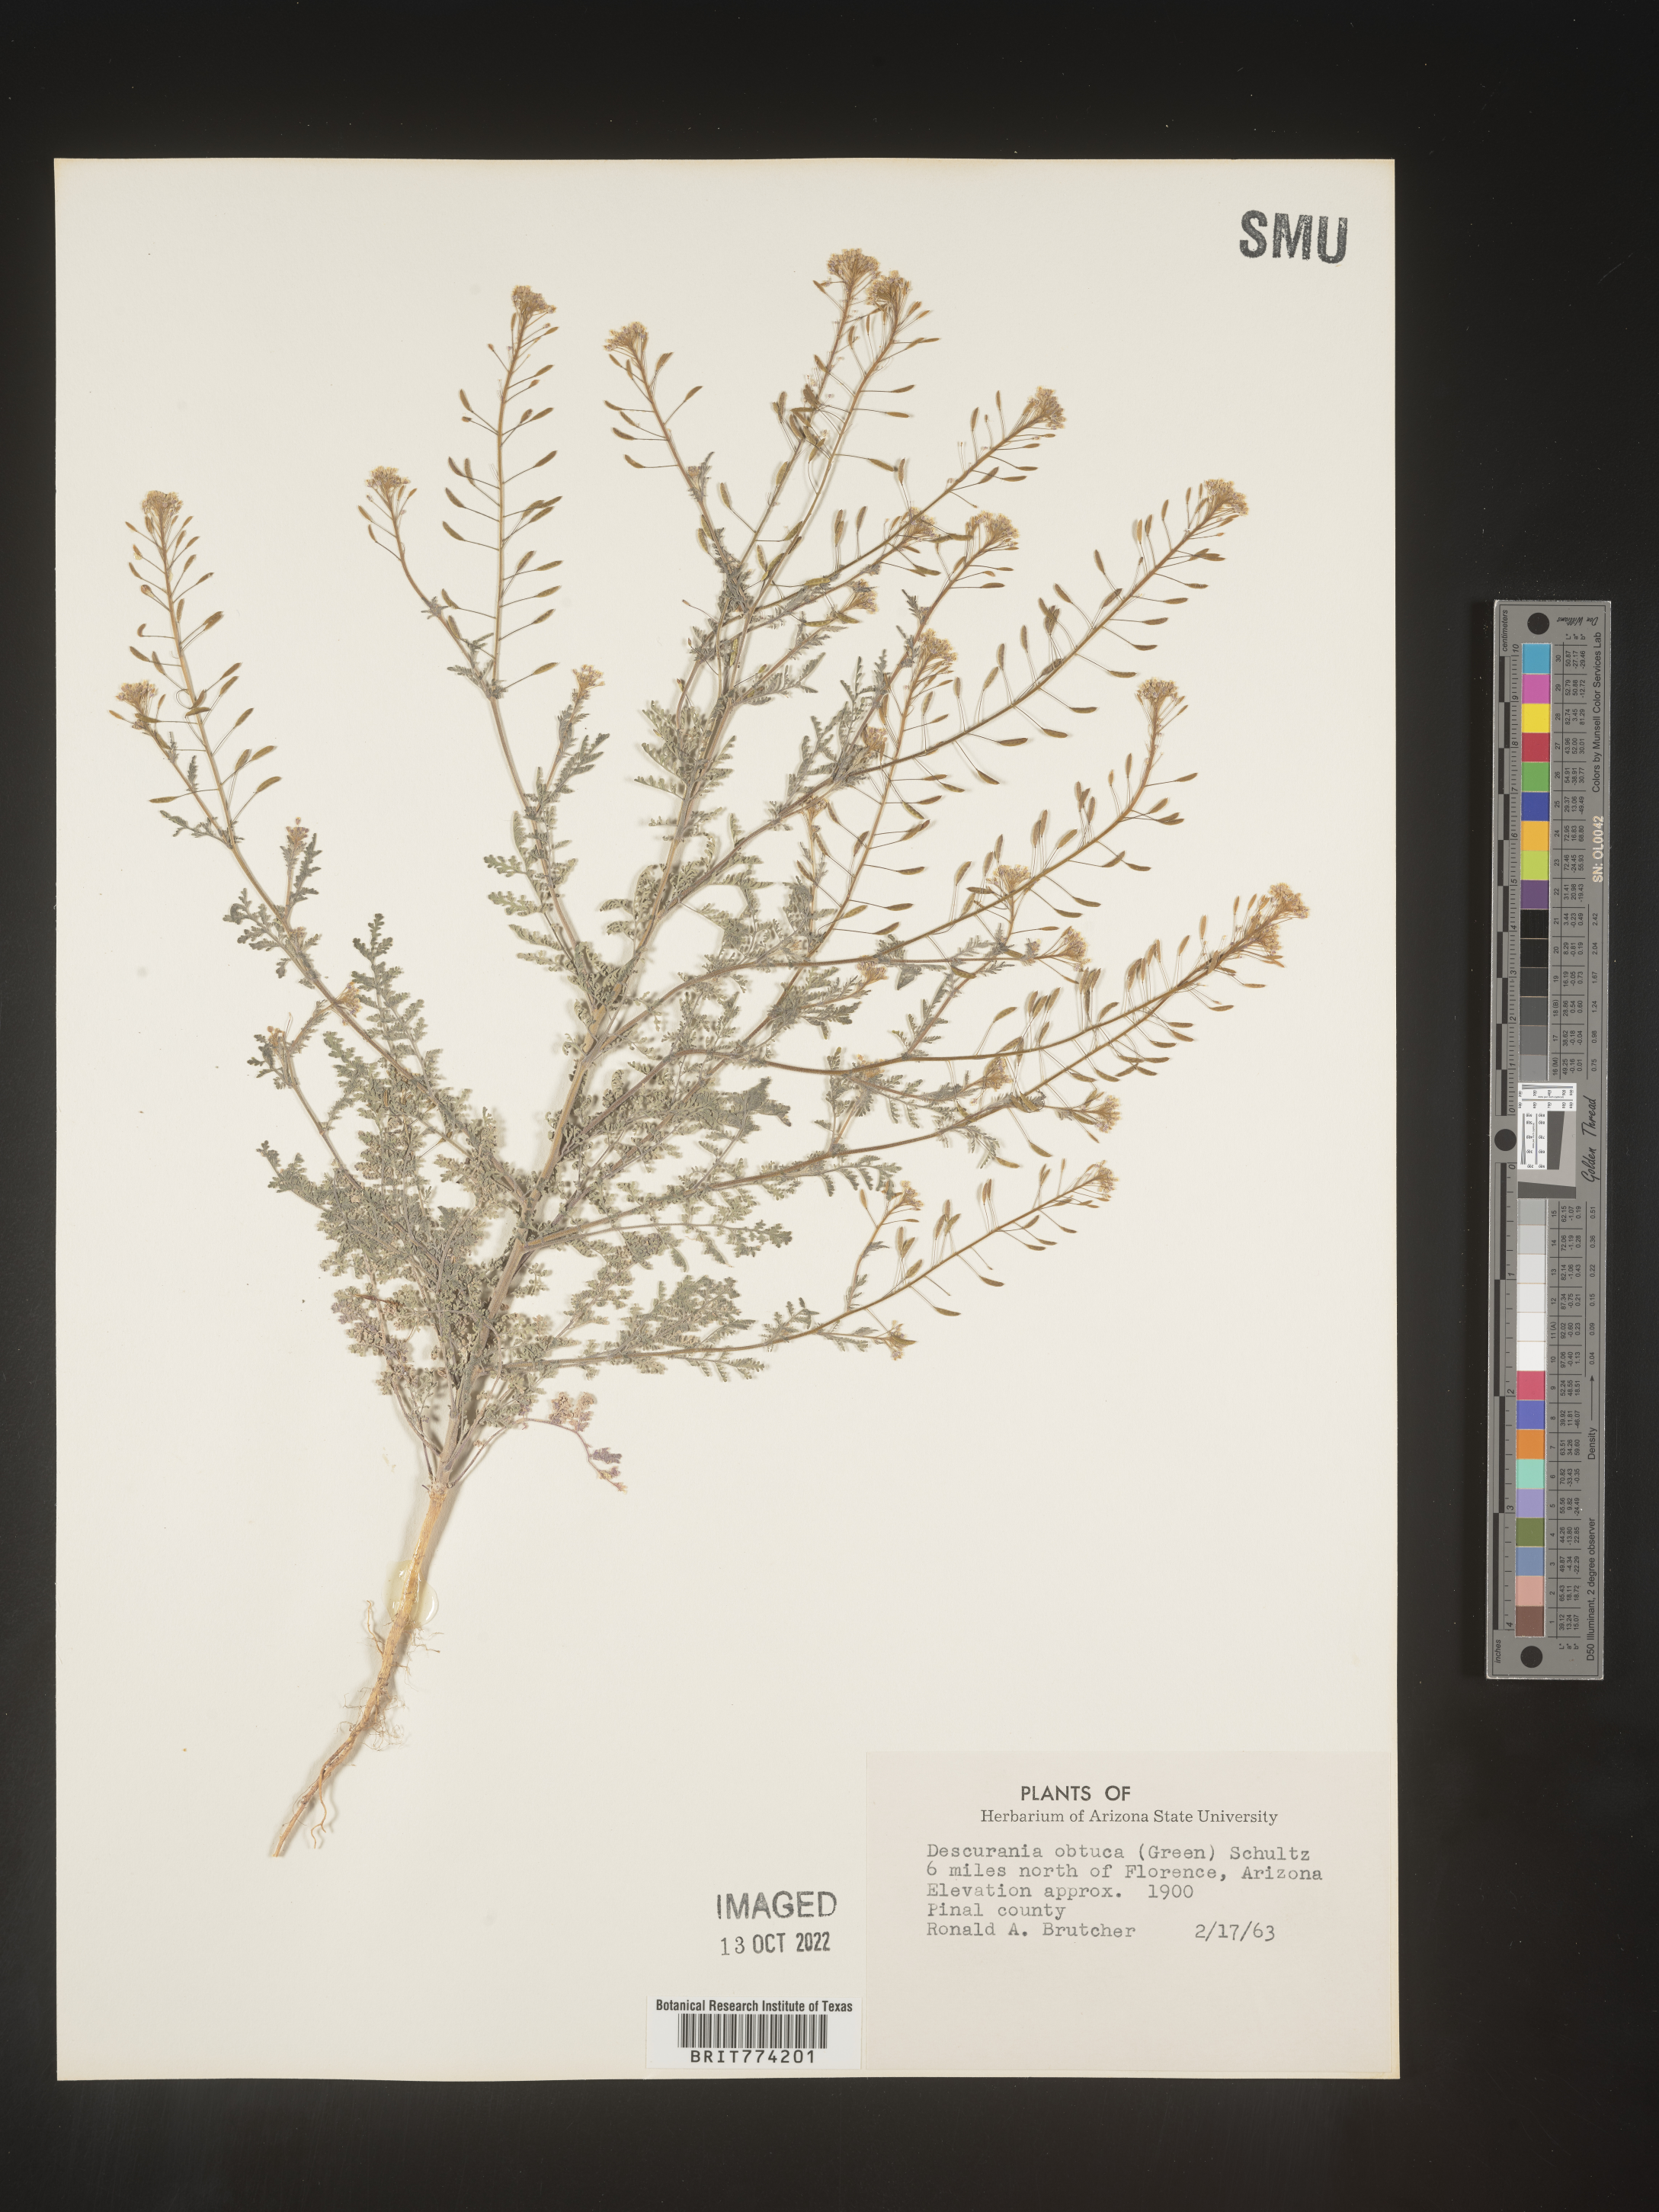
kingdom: Plantae
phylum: Tracheophyta
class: Magnoliopsida
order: Brassicales
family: Brassicaceae
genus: Descurainia
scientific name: Descurainia
